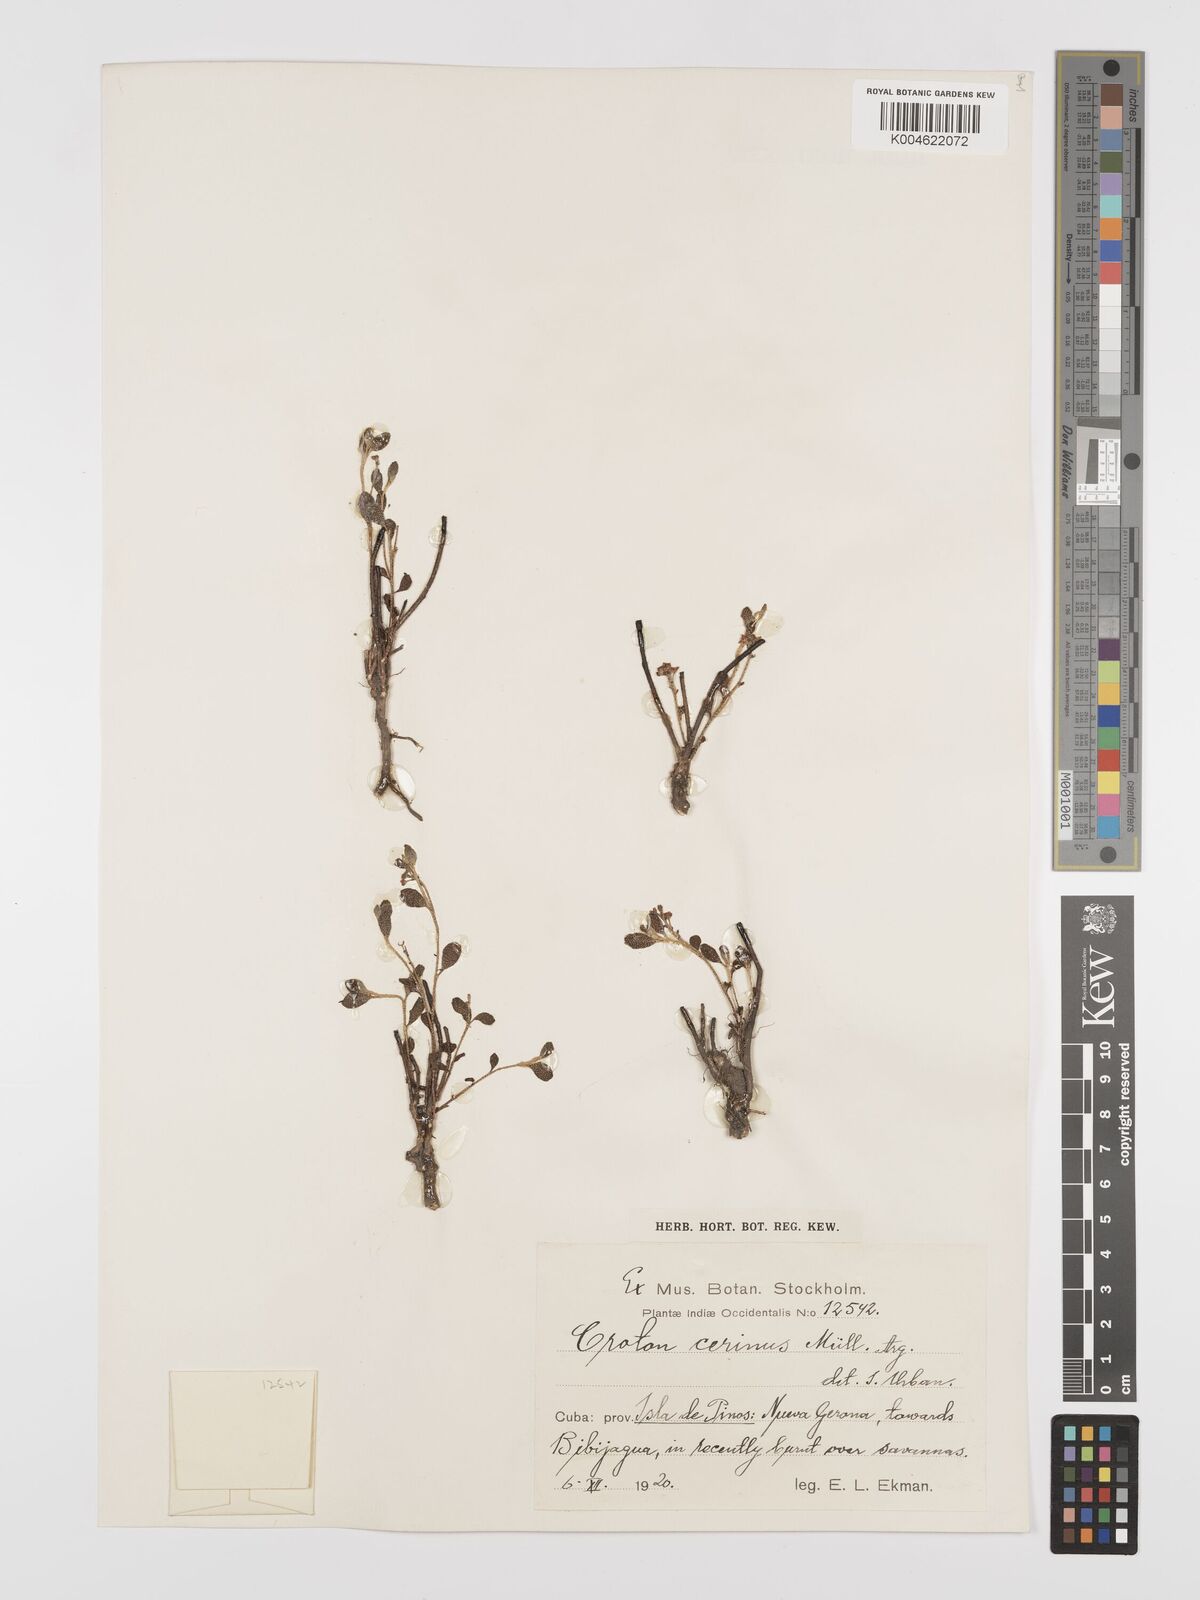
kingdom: Plantae
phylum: Tracheophyta
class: Magnoliopsida
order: Malpighiales
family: Euphorbiaceae
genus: Croton
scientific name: Croton cerinus
